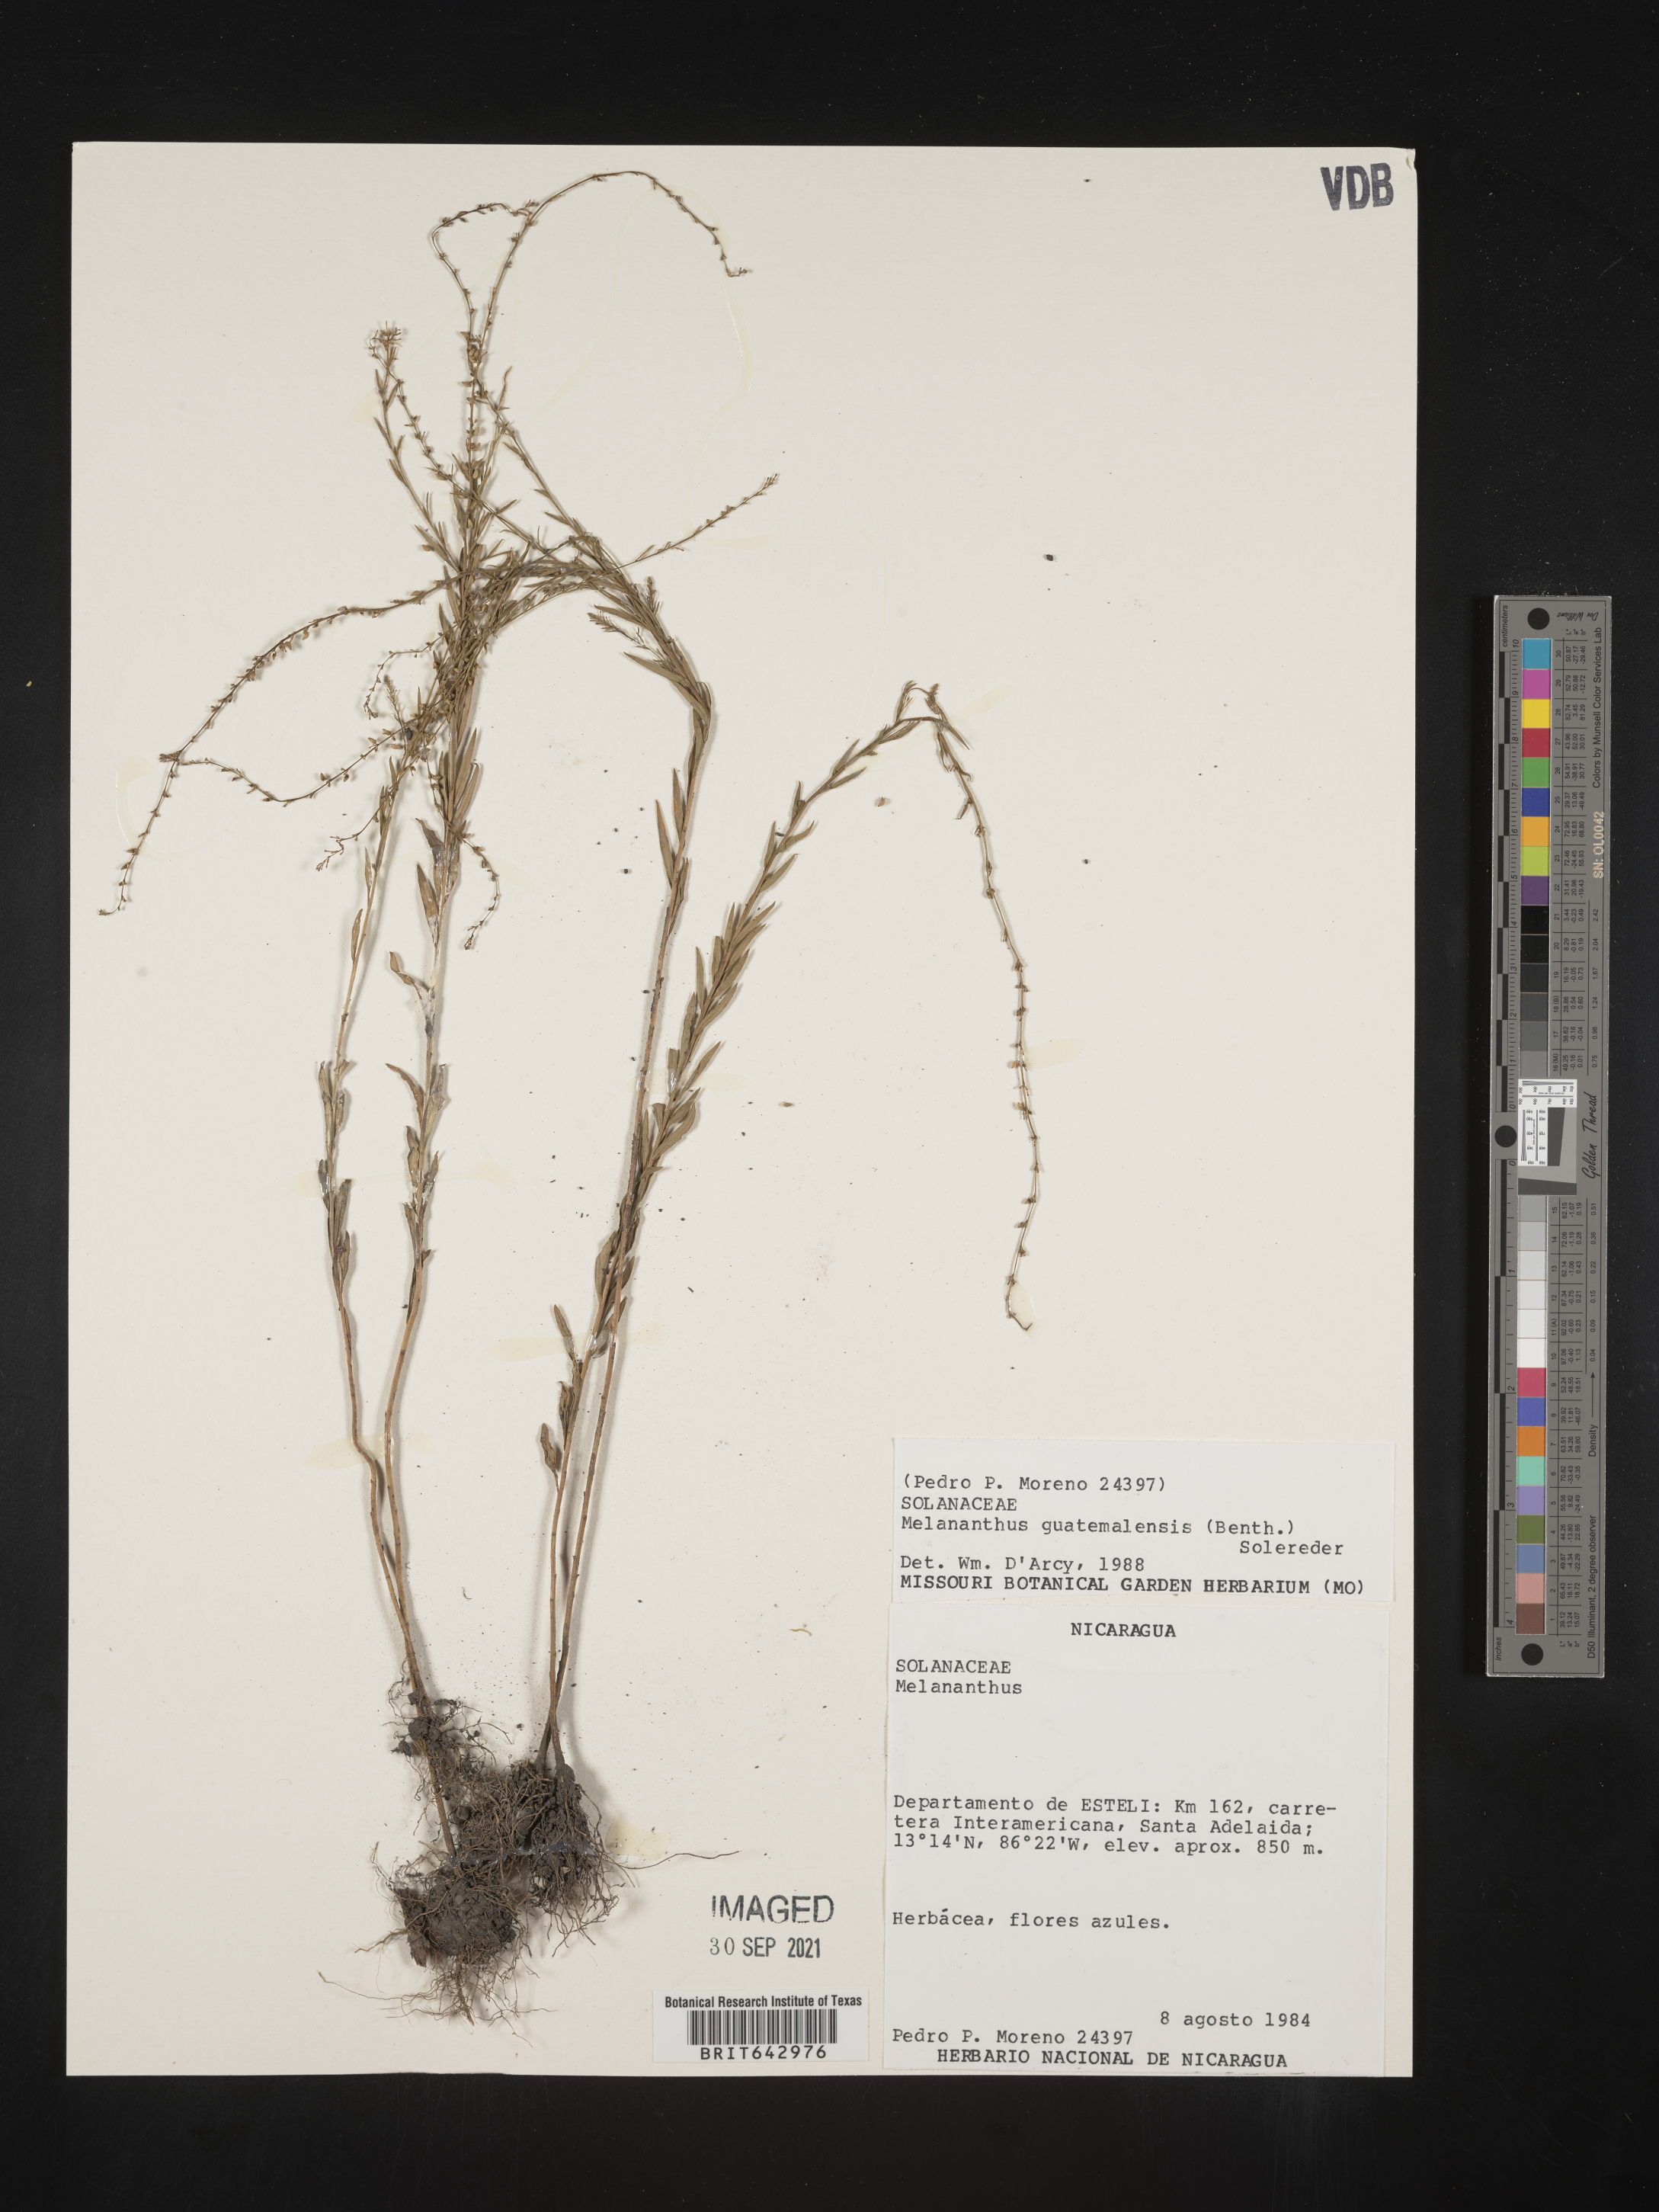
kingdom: Plantae
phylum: Tracheophyta
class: Magnoliopsida
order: Solanales
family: Solanaceae
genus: Melananthus
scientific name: Melananthus
